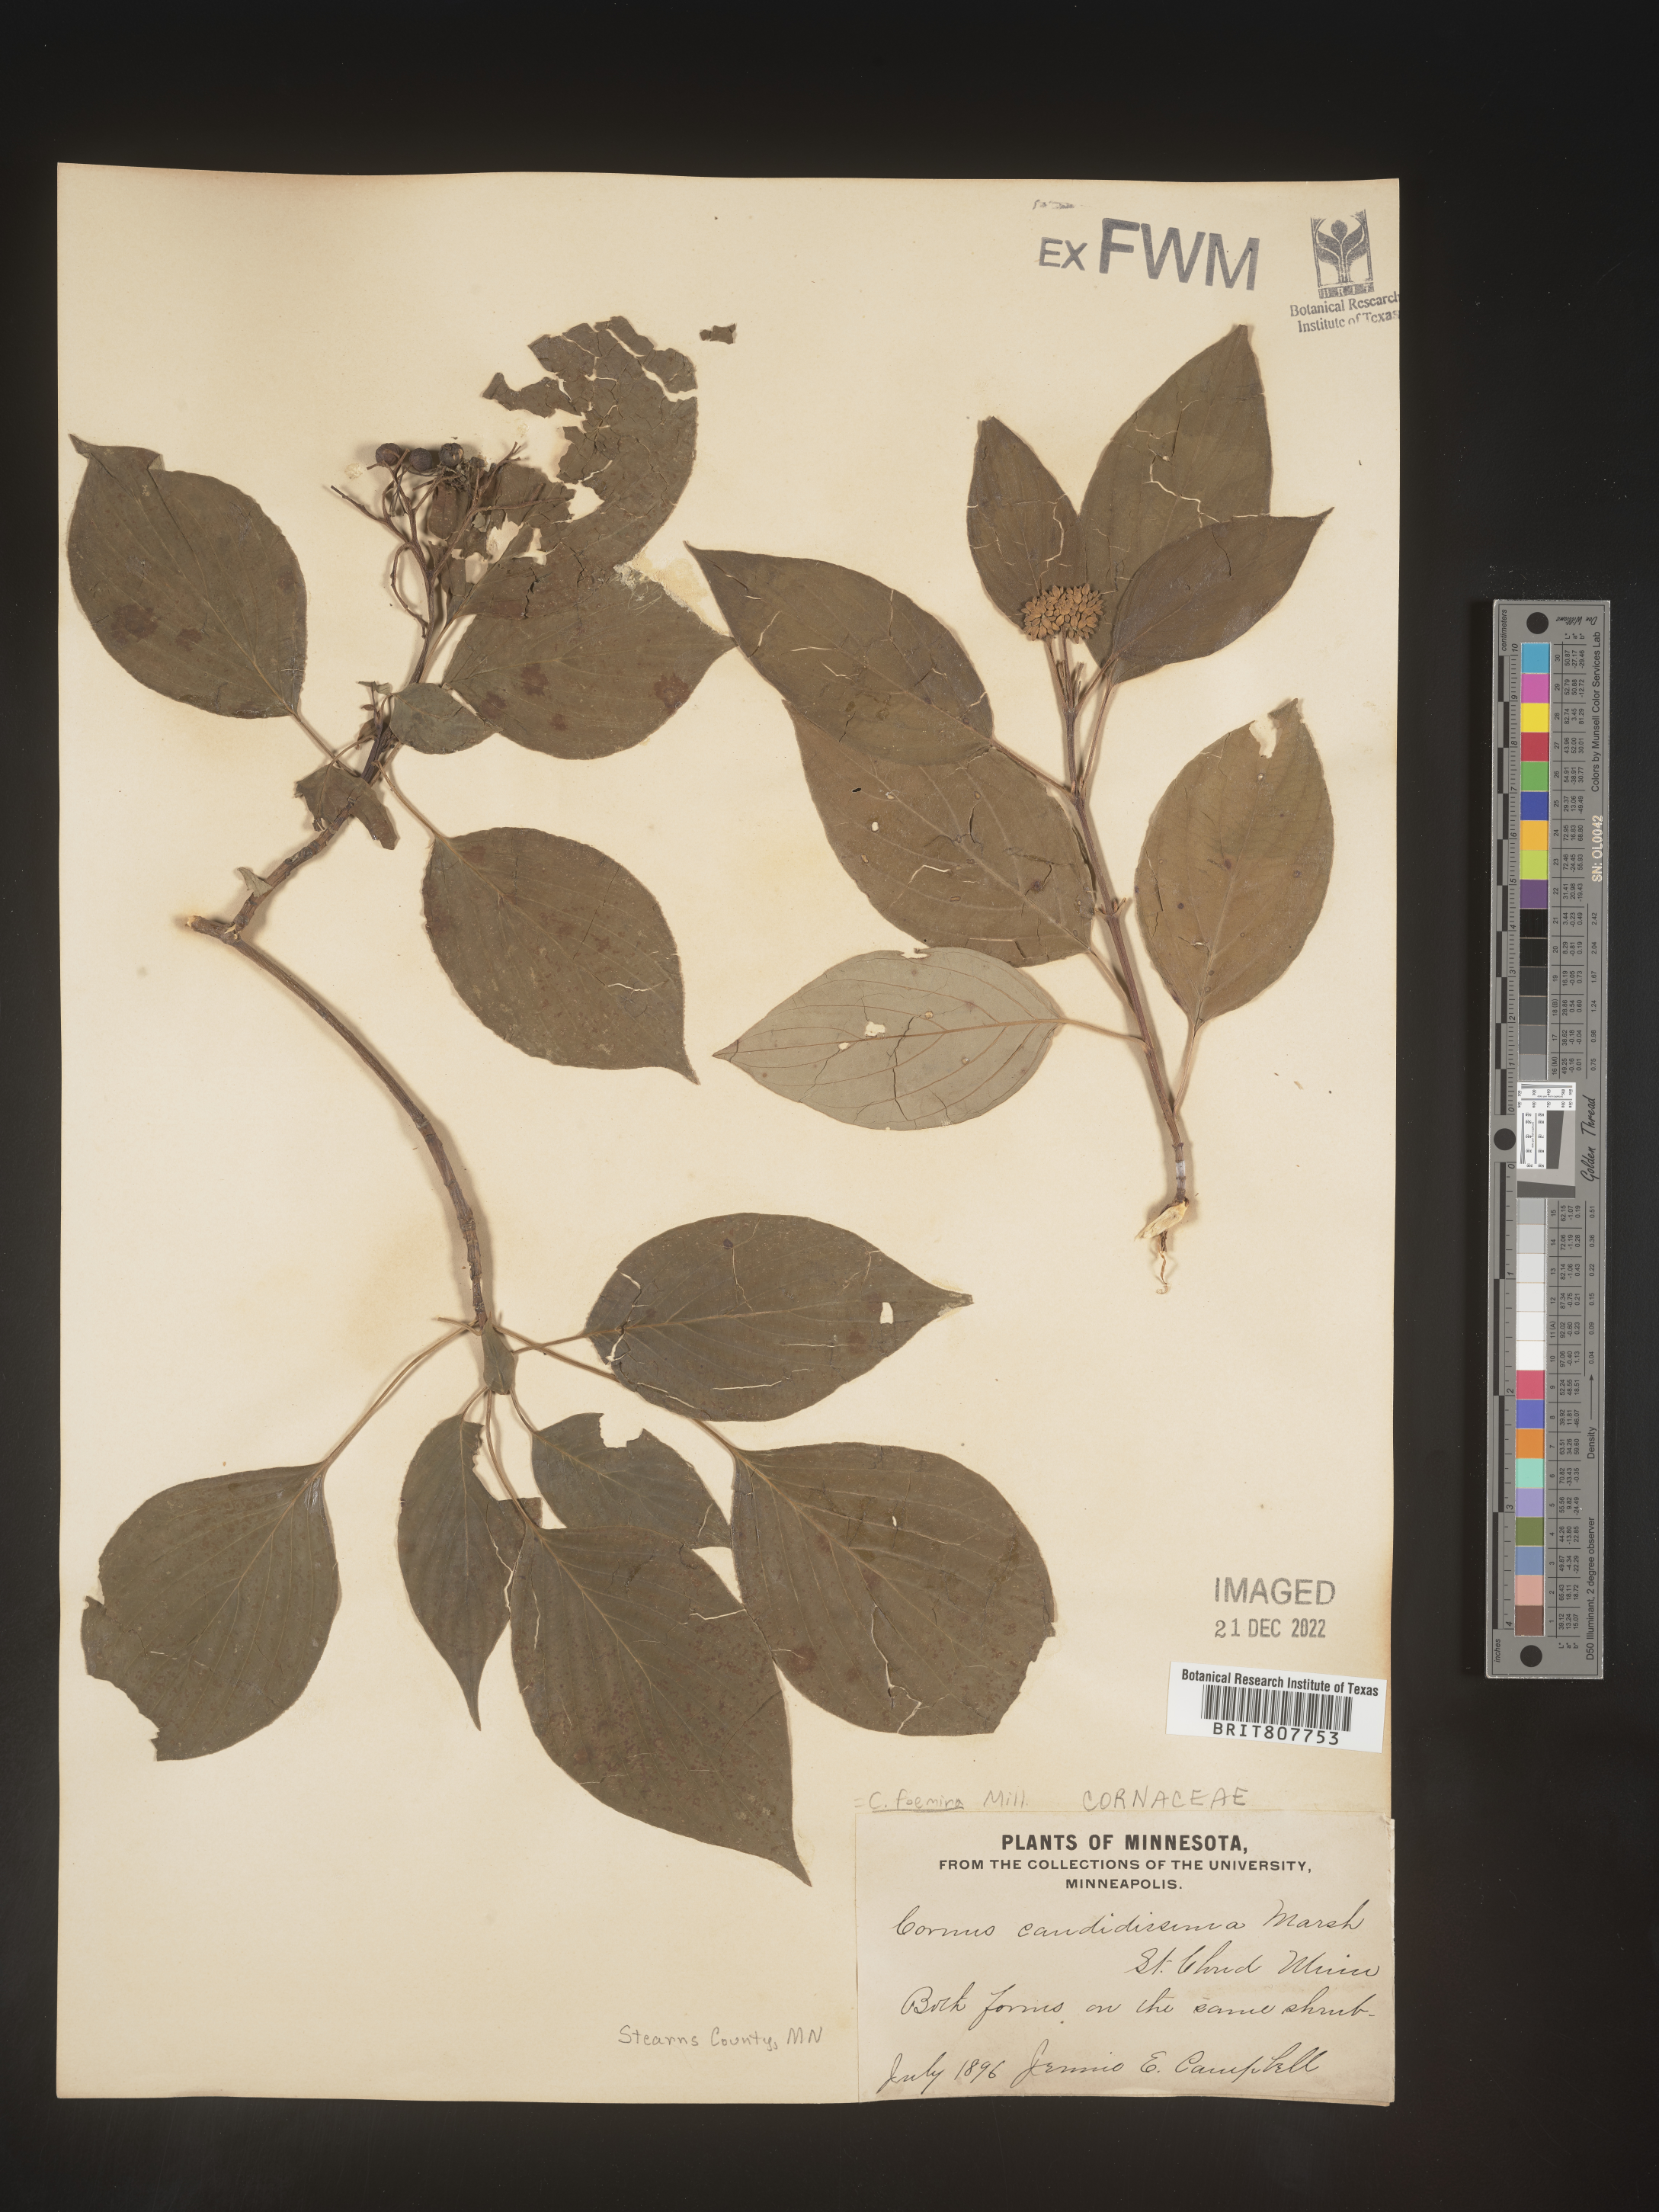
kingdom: Plantae
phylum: Tracheophyta
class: Magnoliopsida
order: Cornales
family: Cornaceae
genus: Cornus
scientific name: Cornus foemina
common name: Swamp dogwood
